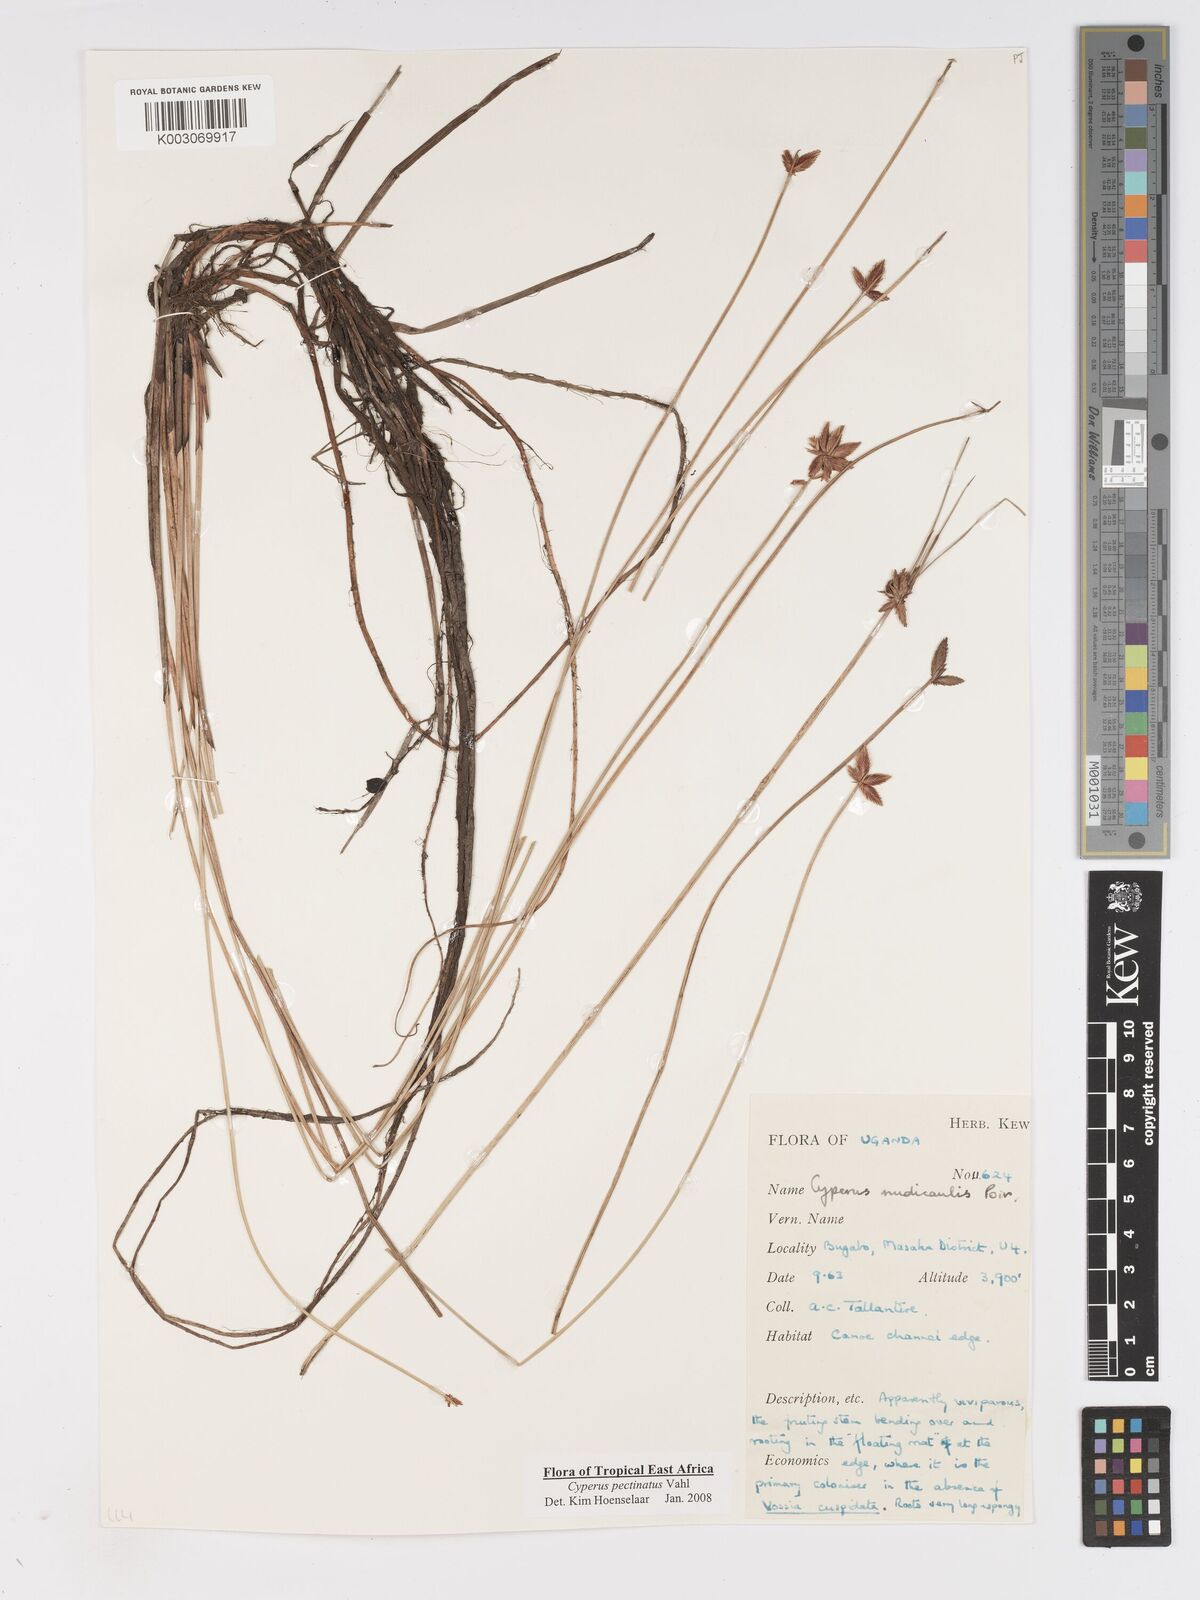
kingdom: Plantae
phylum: Tracheophyta
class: Liliopsida
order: Poales
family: Cyperaceae
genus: Cyperus
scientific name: Cyperus pectinatus
